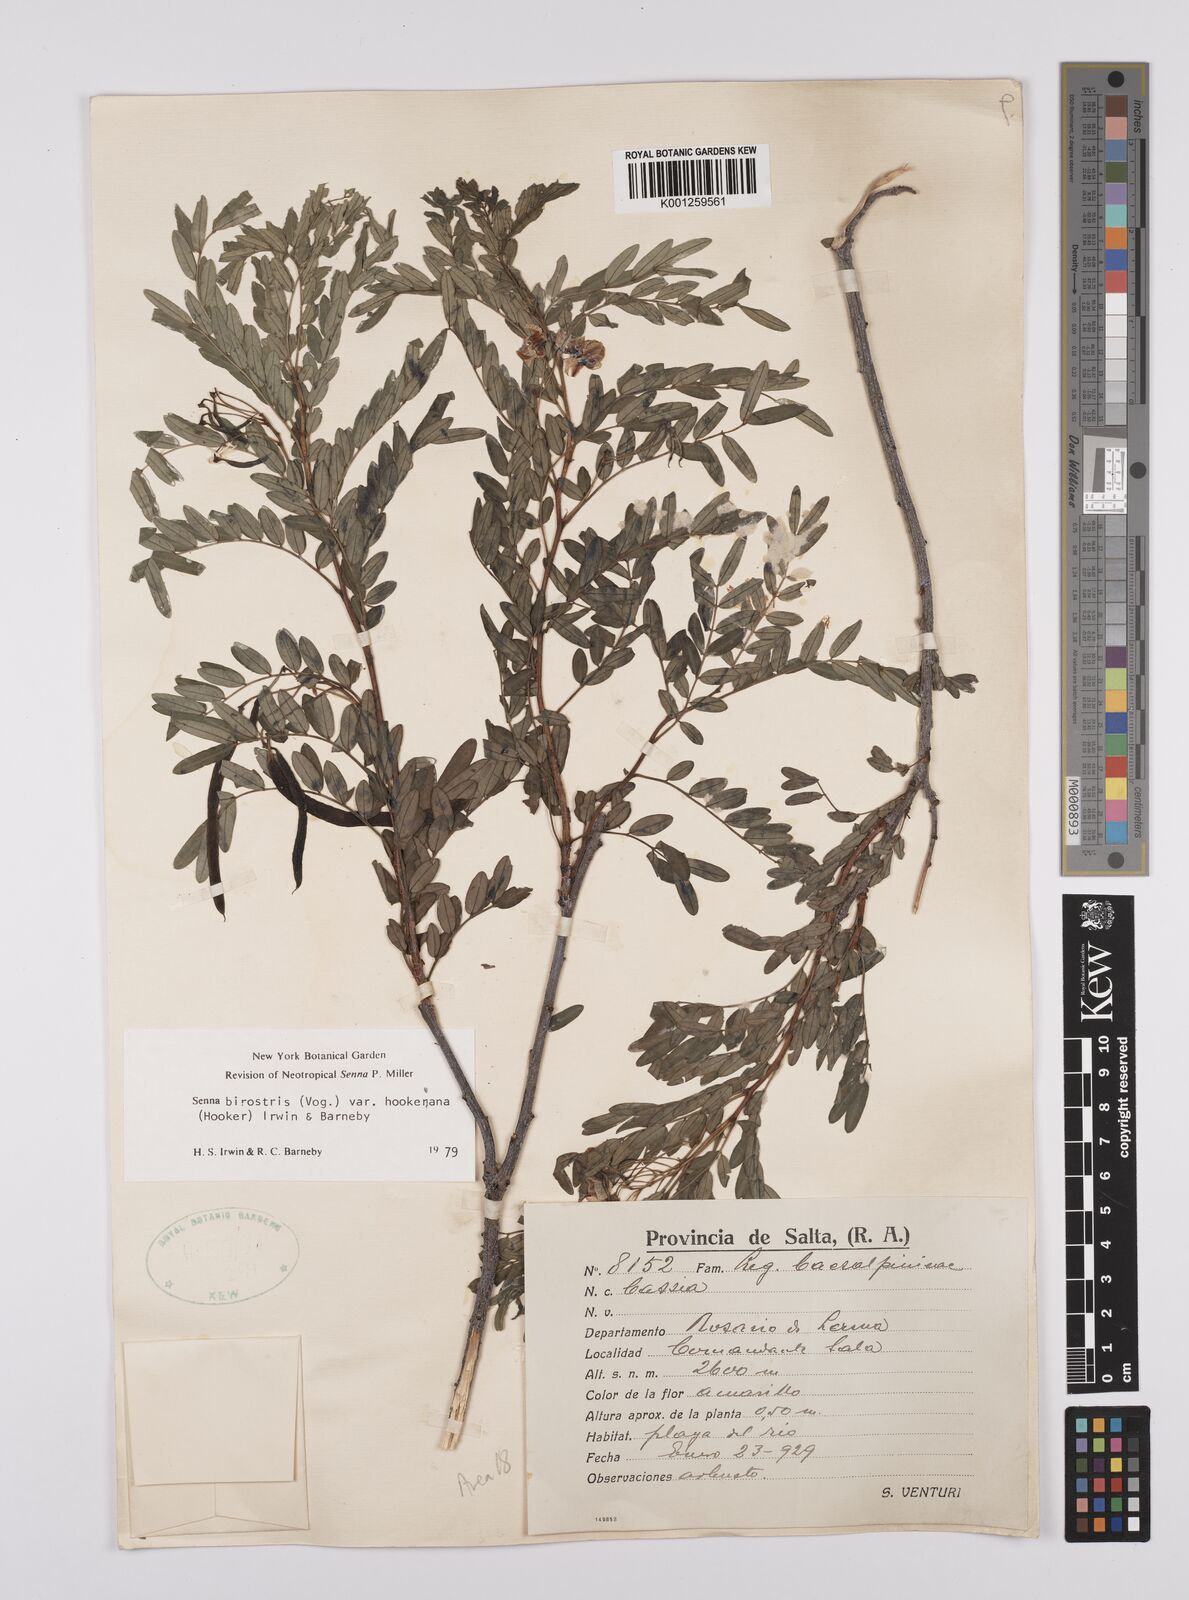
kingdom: Plantae
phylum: Tracheophyta
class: Magnoliopsida
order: Fabales
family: Fabaceae
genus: Senna
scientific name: Senna birostris
